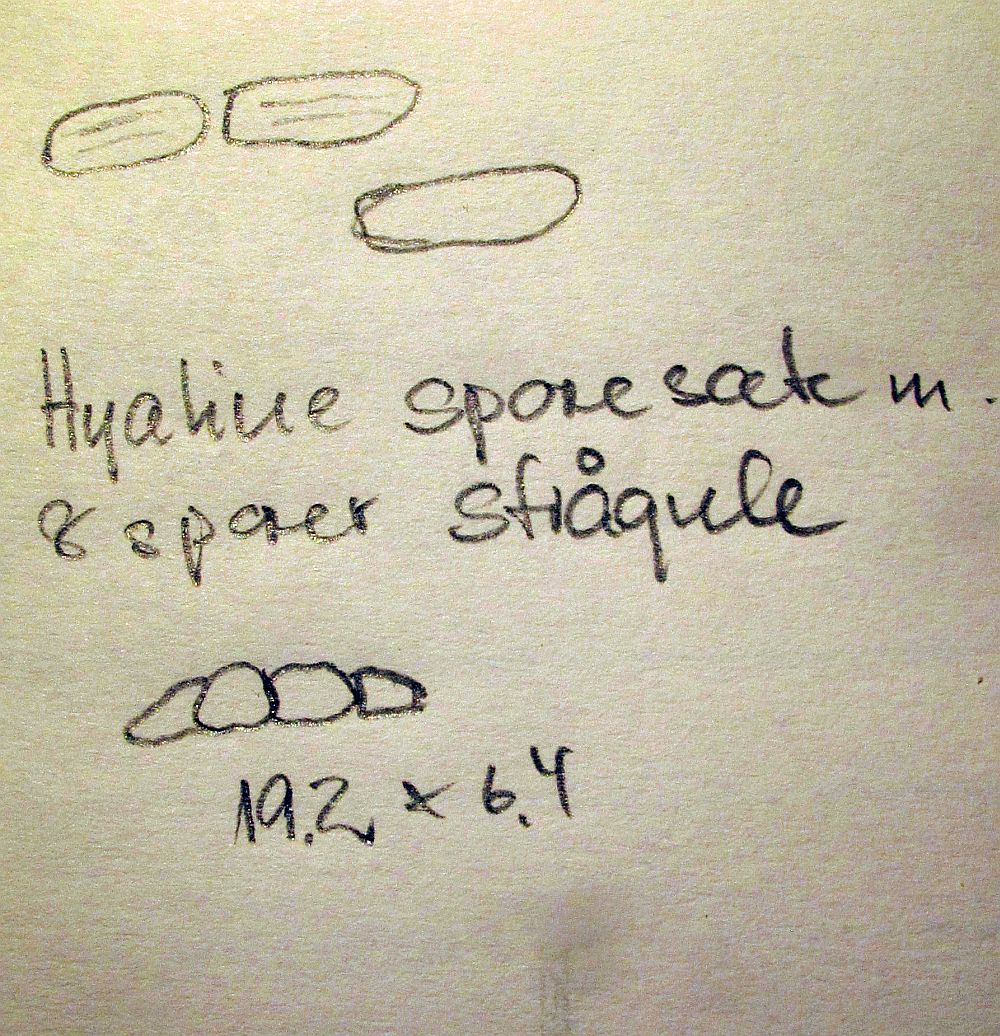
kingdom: Fungi
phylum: Ascomycota
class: Dothideomycetes
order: Hysteriales
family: Hysteriaceae
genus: Hysterium
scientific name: Hysterium acuminatum
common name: almindelig kulmund
